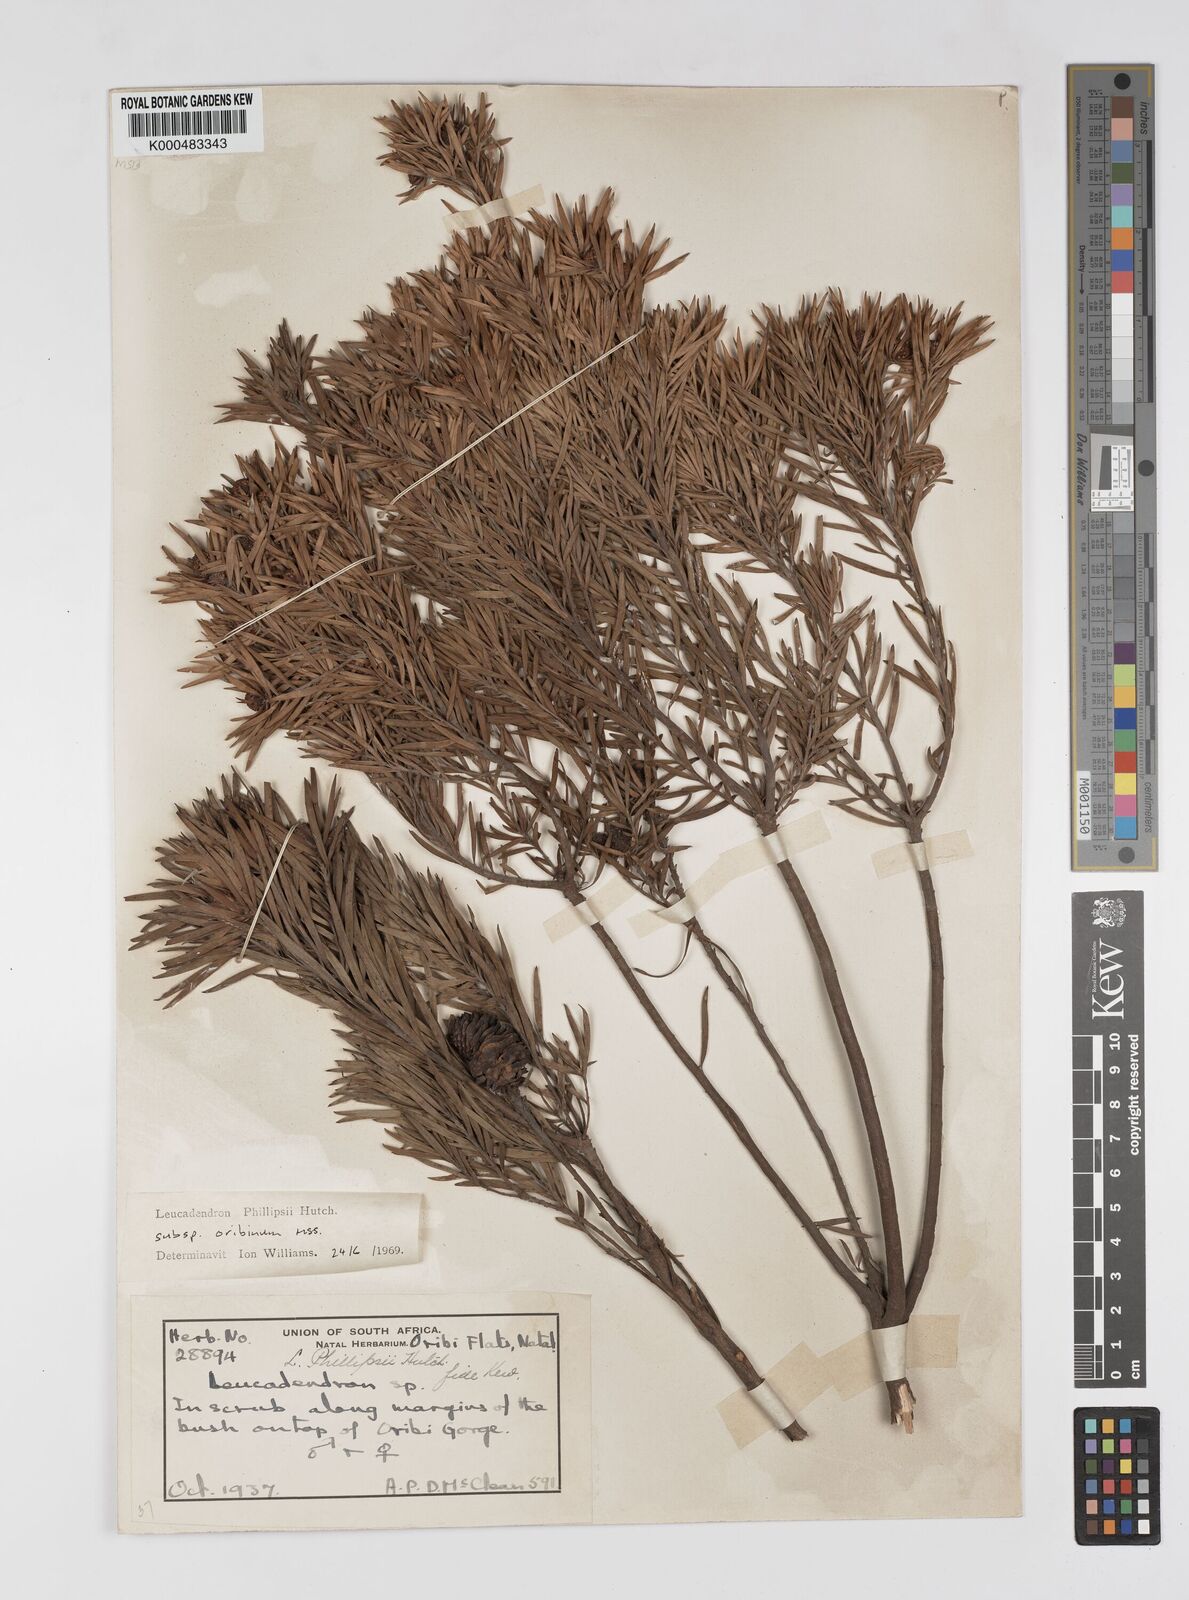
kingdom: Plantae
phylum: Tracheophyta
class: Magnoliopsida
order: Proteales
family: Proteaceae
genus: Leucadendron
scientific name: Leucadendron spissifolium
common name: Spear-leaf conebush
